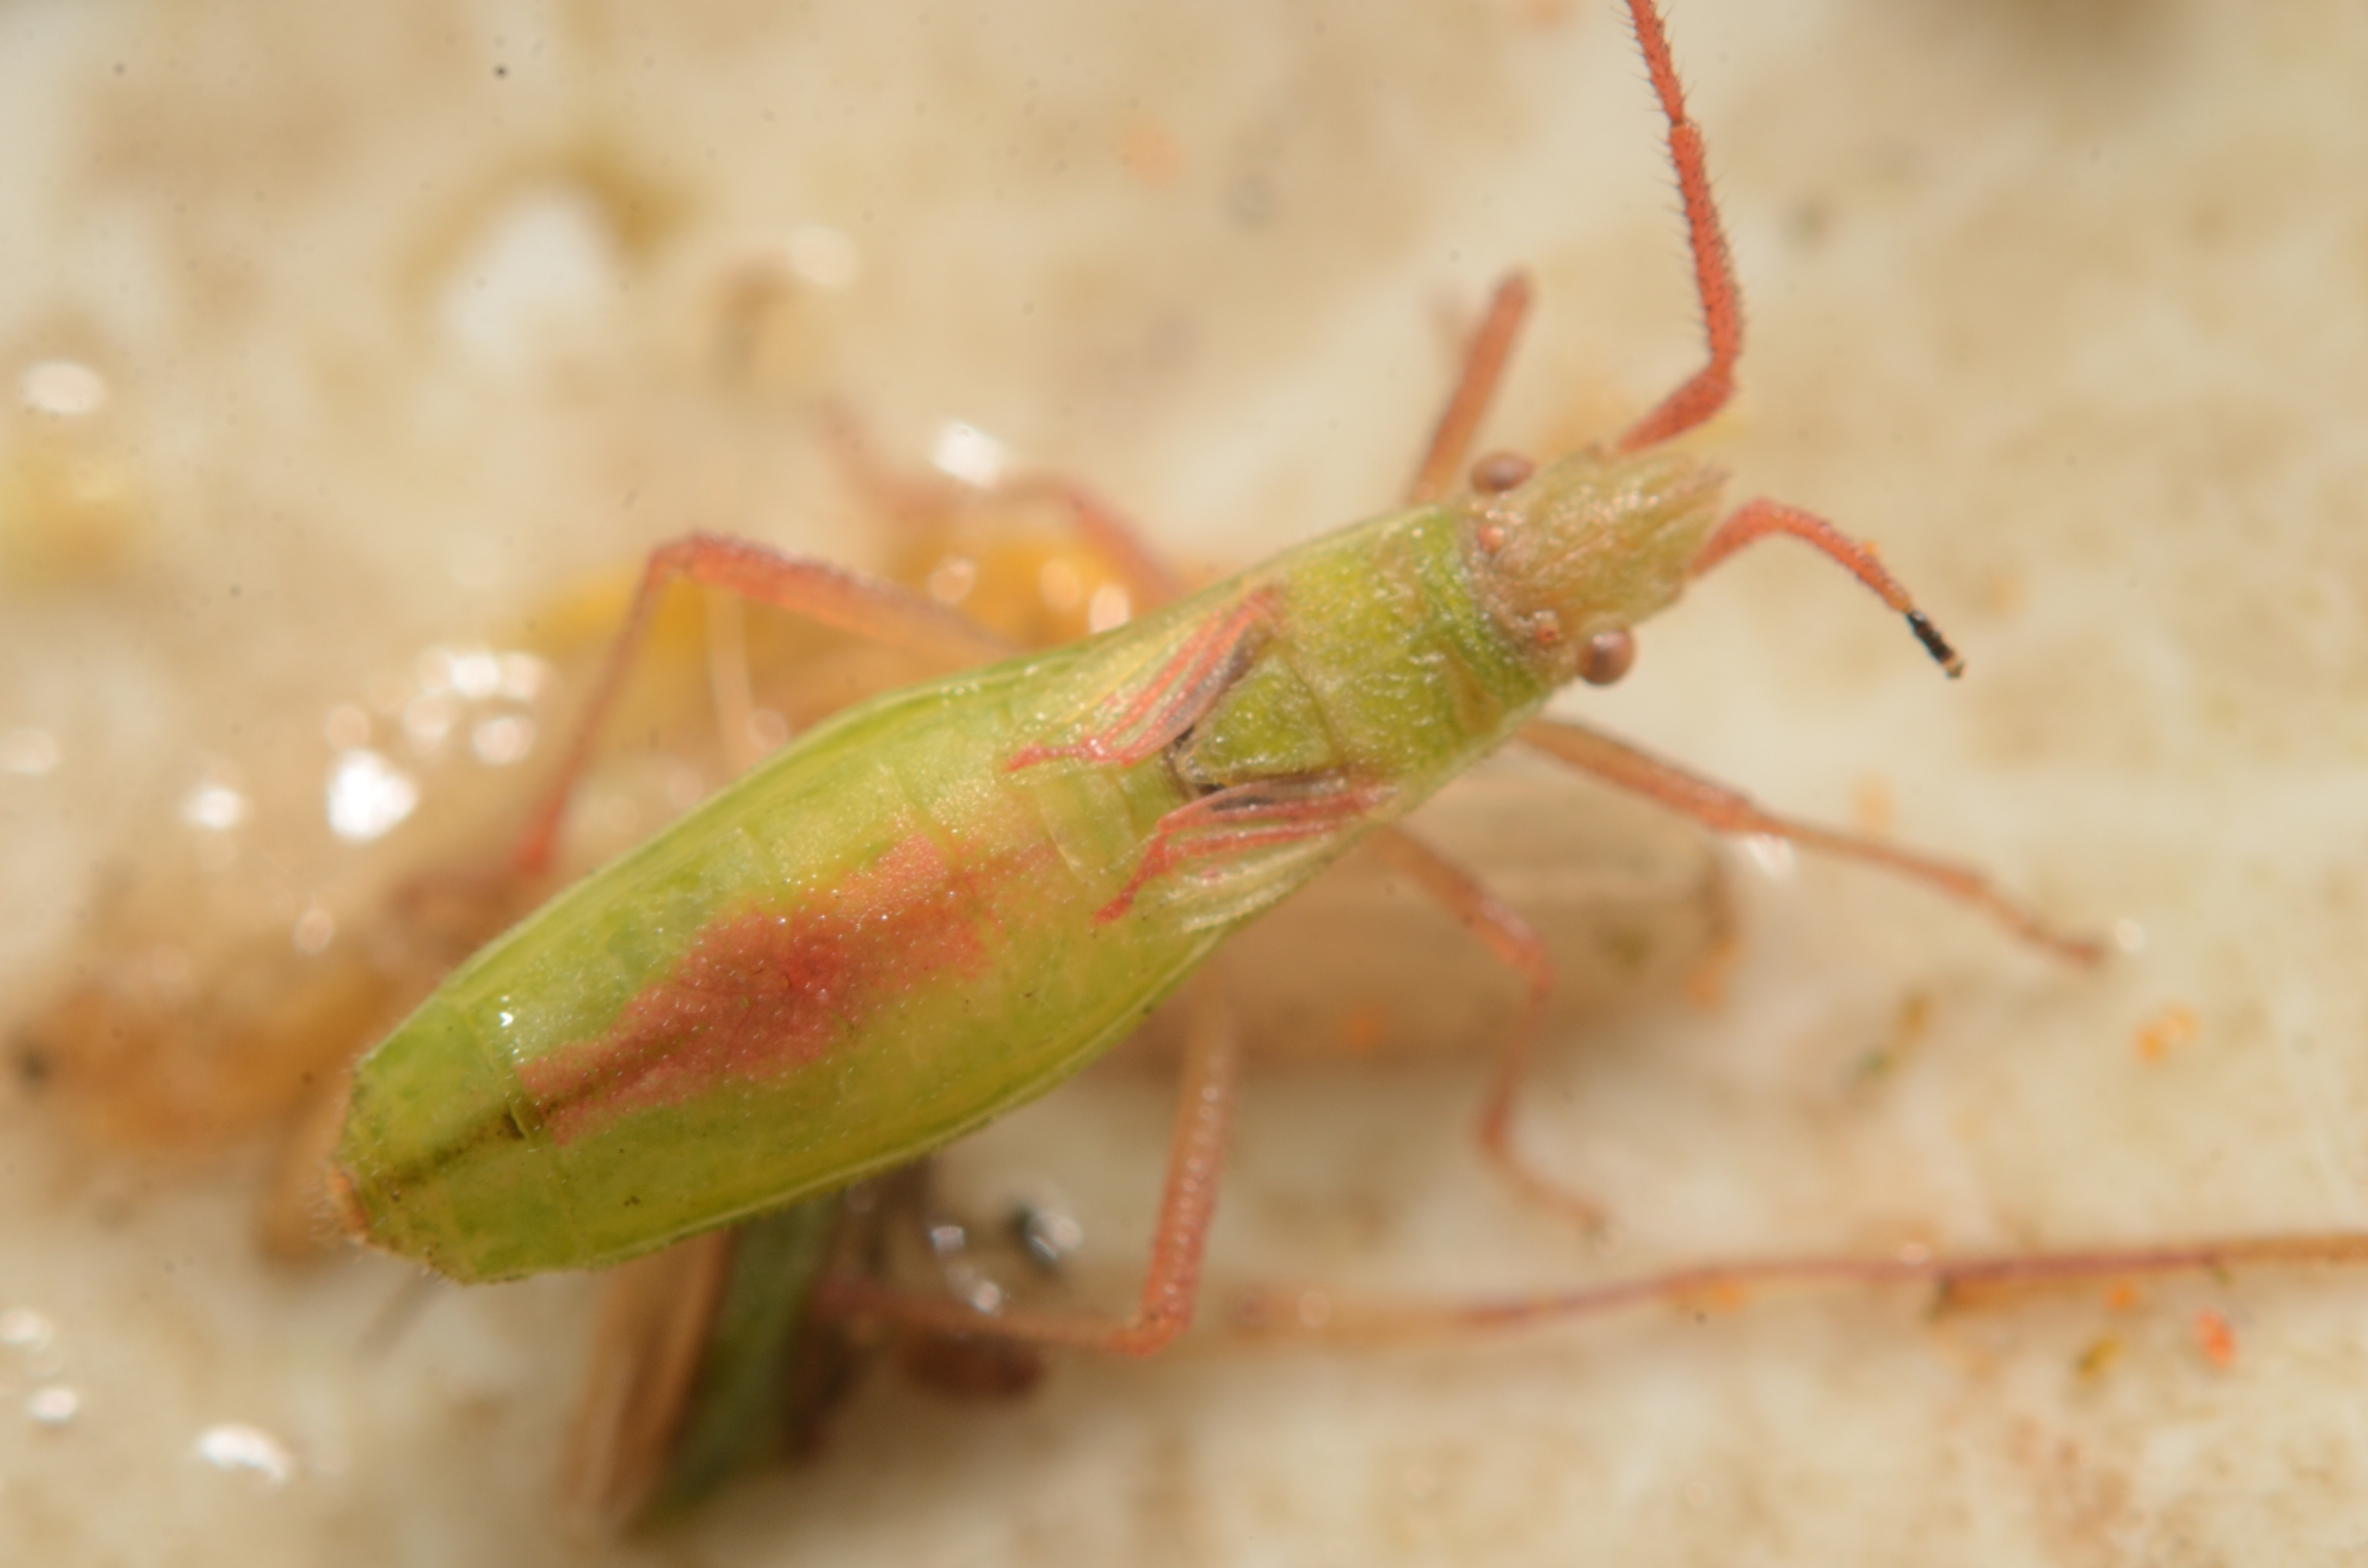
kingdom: Animalia
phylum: Arthropoda
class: Insecta
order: Hemiptera
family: Rhopalidae
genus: Myrmus
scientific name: Myrmus miriformis
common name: Lille stråtæge
